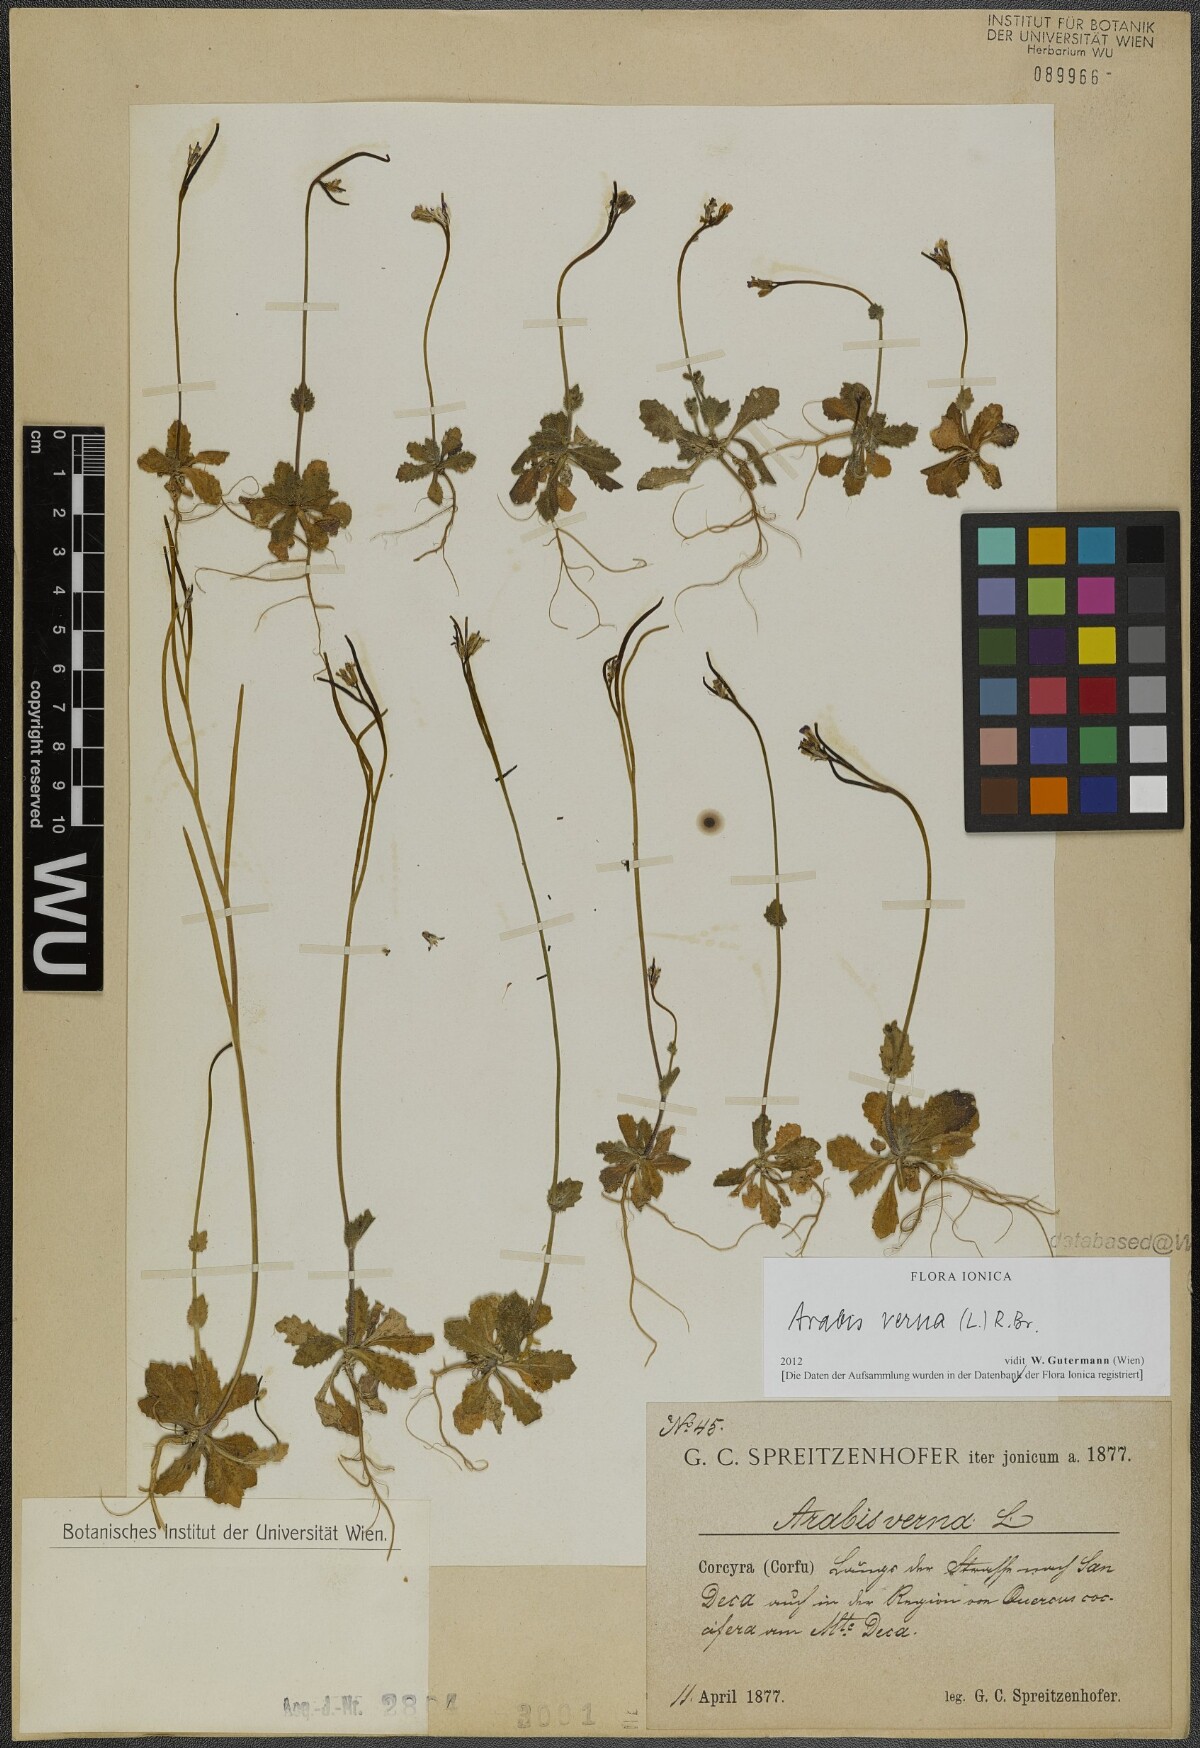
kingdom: Plantae
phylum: Tracheophyta
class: Magnoliopsida
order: Brassicales
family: Brassicaceae
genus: Arabis
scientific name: Arabis verna
